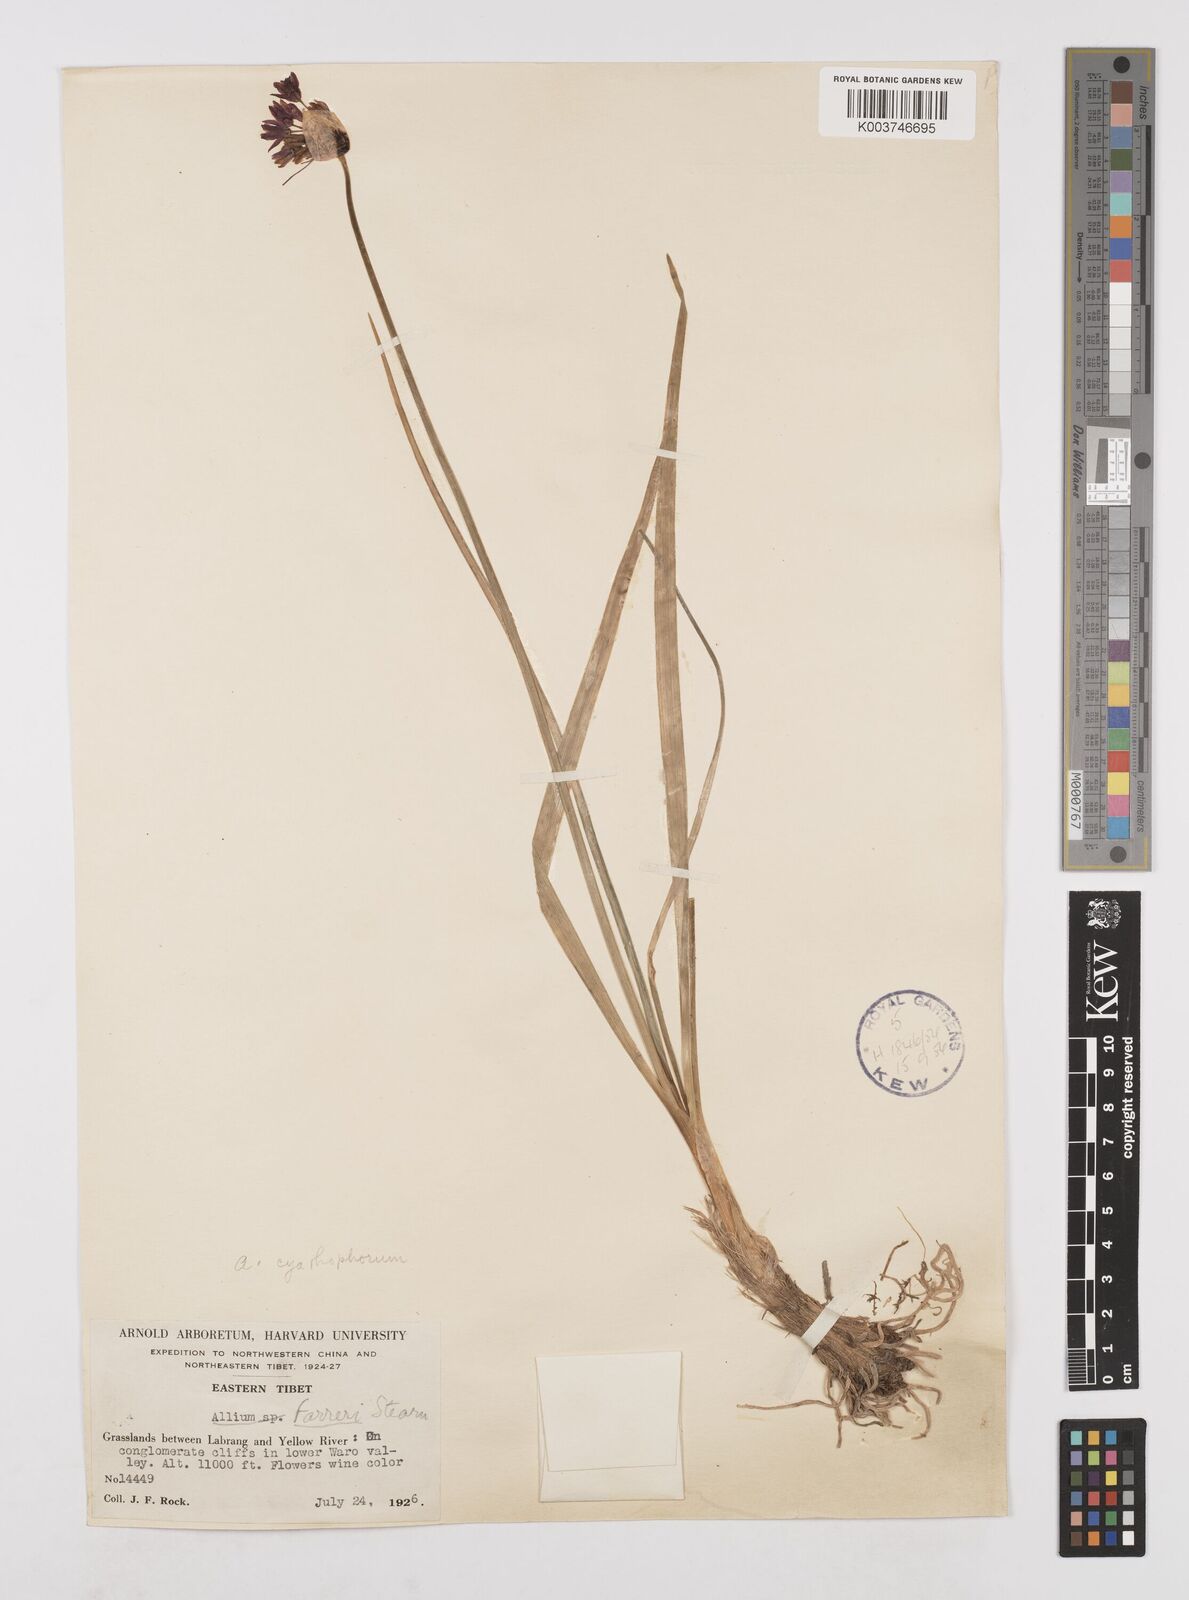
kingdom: Plantae
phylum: Tracheophyta
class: Liliopsida
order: Asparagales
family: Amaryllidaceae
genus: Allium
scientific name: Allium farreri
